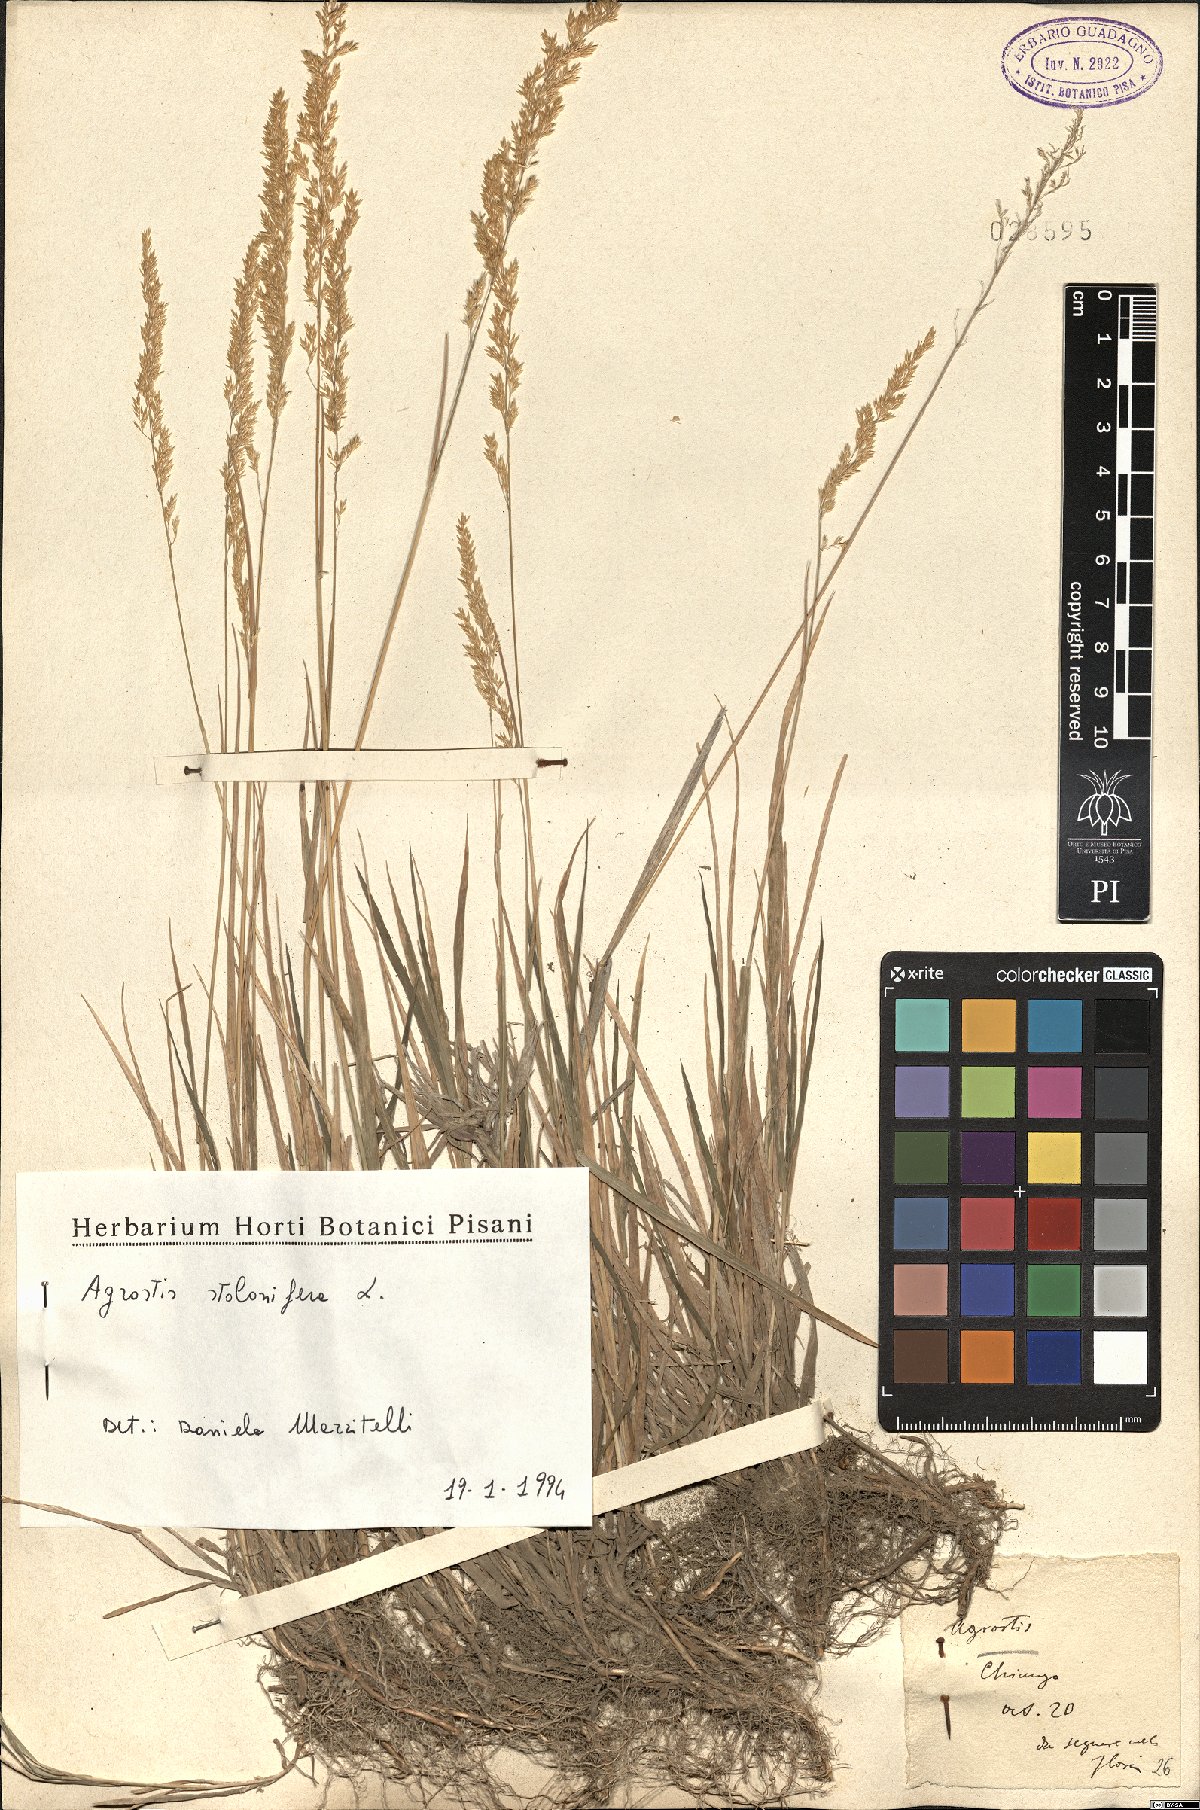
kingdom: Plantae
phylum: Tracheophyta
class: Liliopsida
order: Poales
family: Poaceae
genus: Agrostis
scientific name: Agrostis stolonifera
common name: Creeping bentgrass
